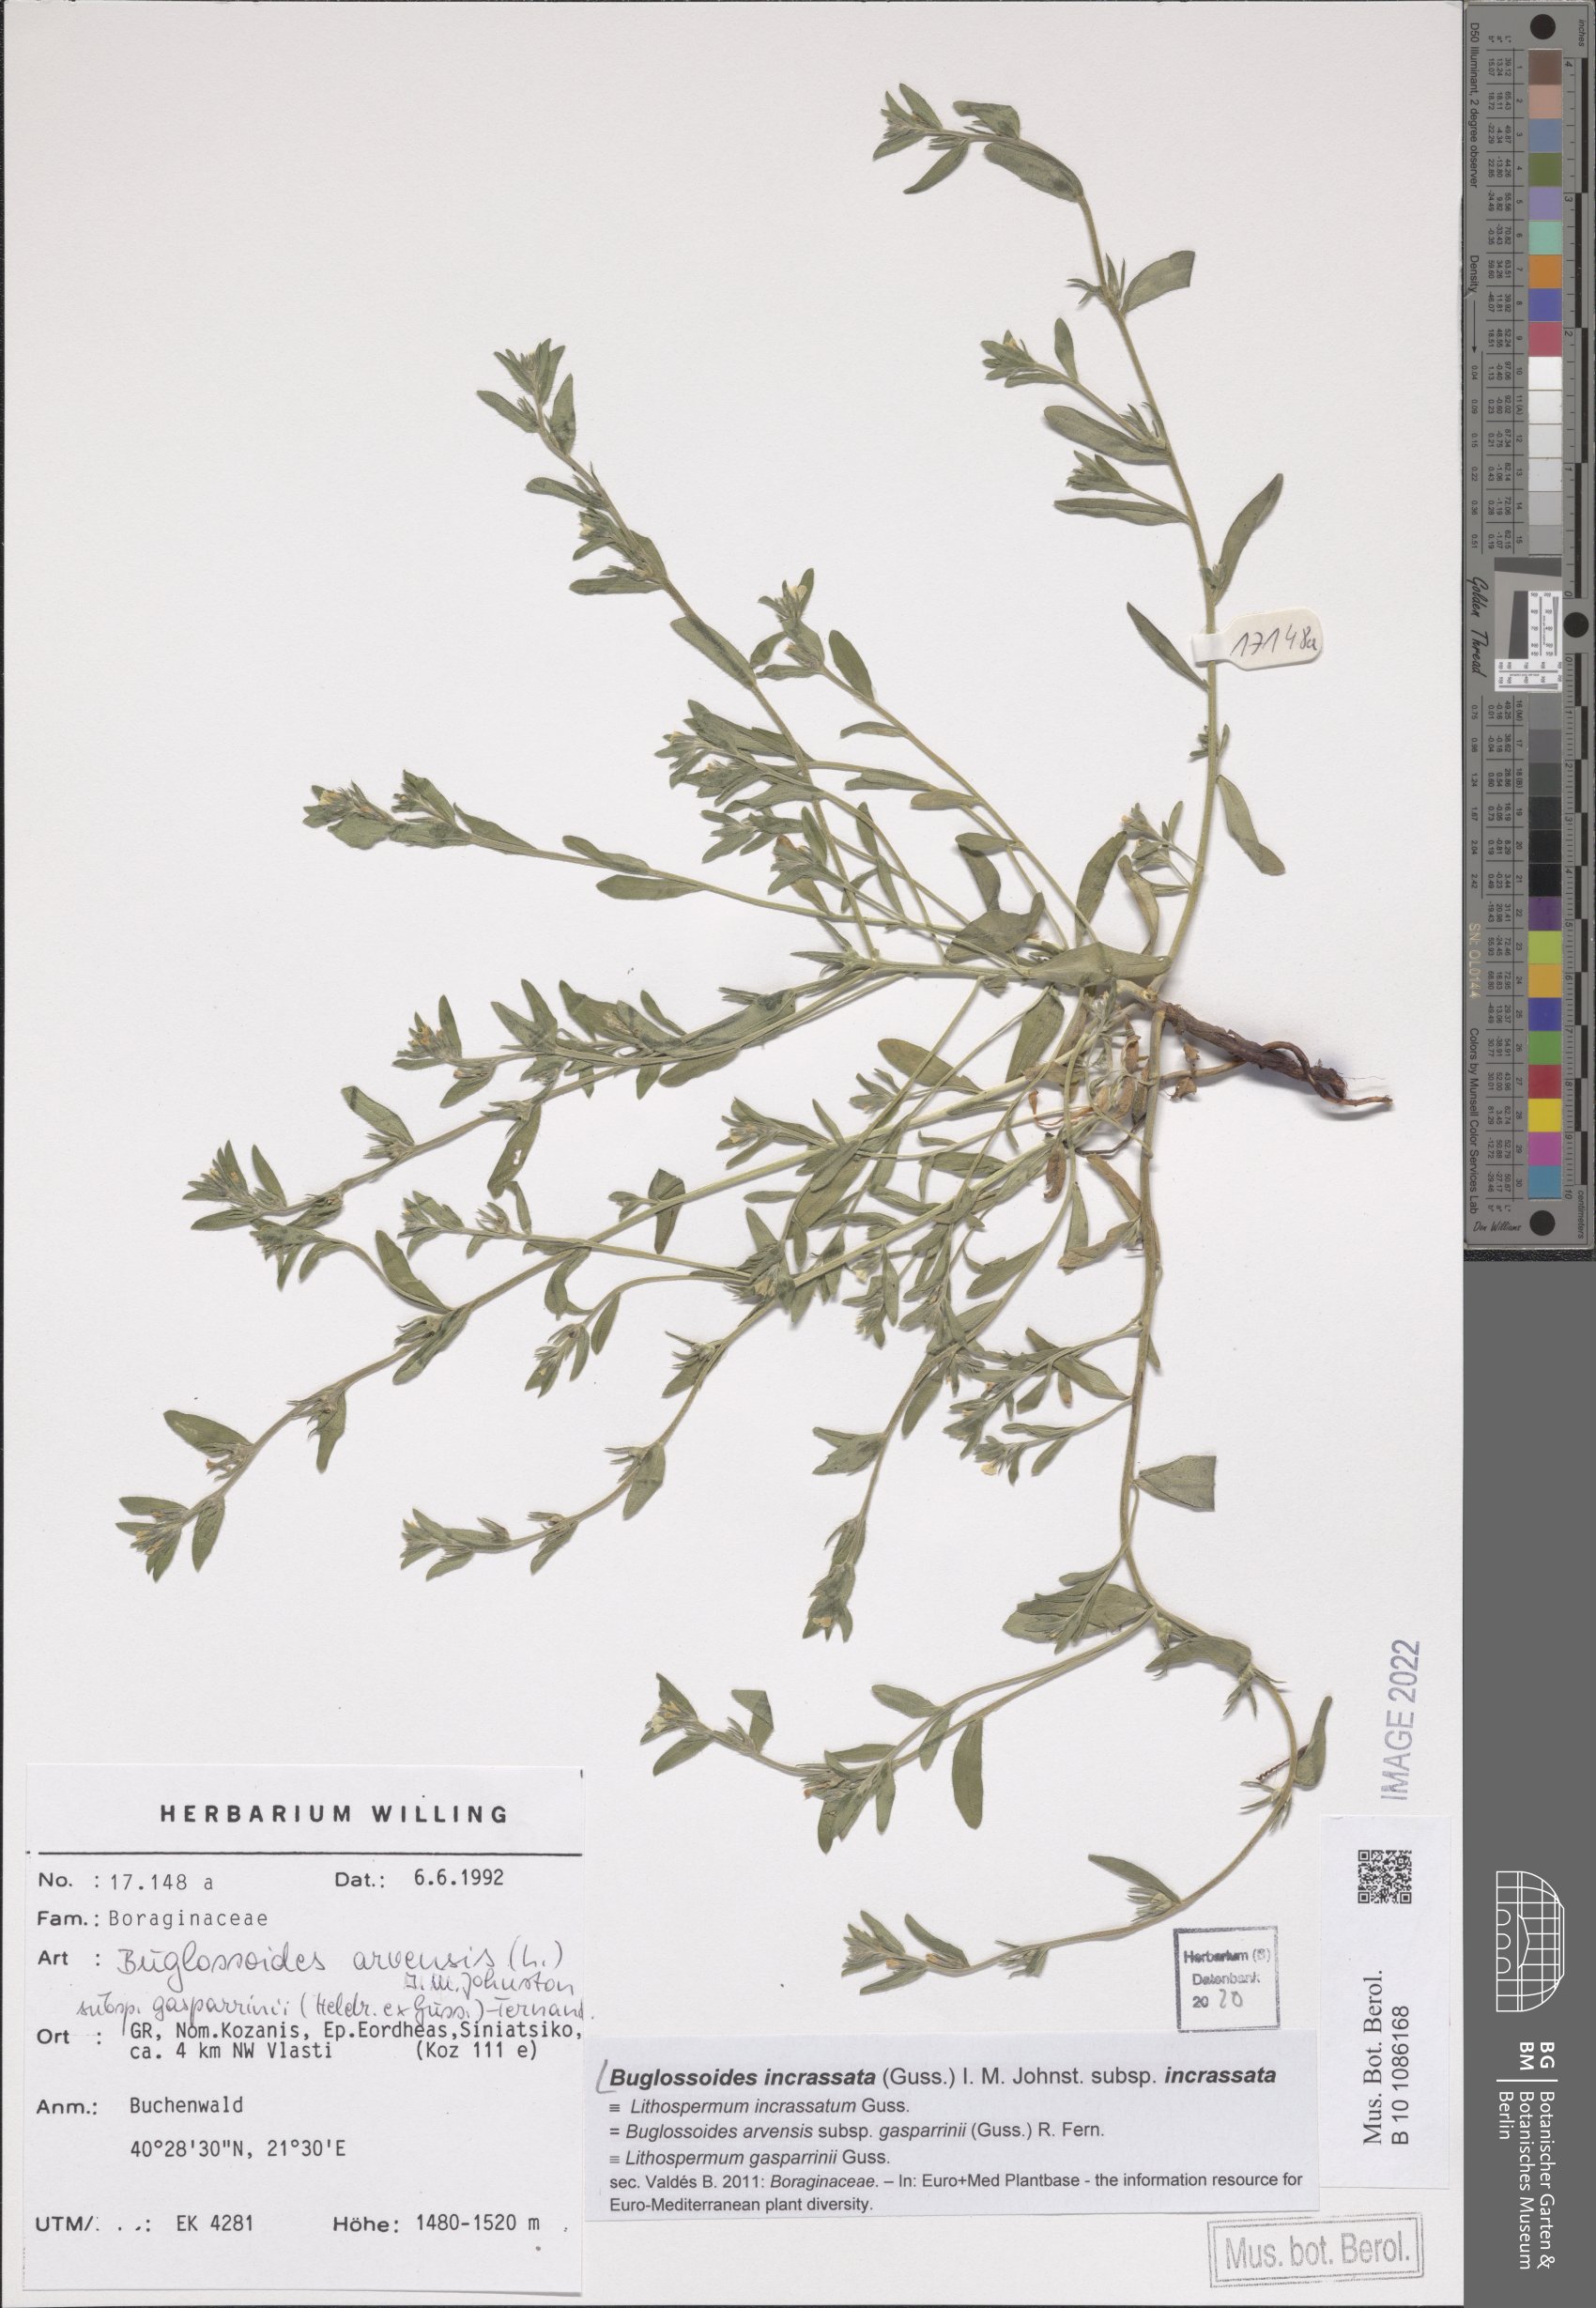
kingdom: Plantae
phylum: Tracheophyta
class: Magnoliopsida
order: Boraginales
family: Boraginaceae
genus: Buglossoides
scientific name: Buglossoides incrassata
